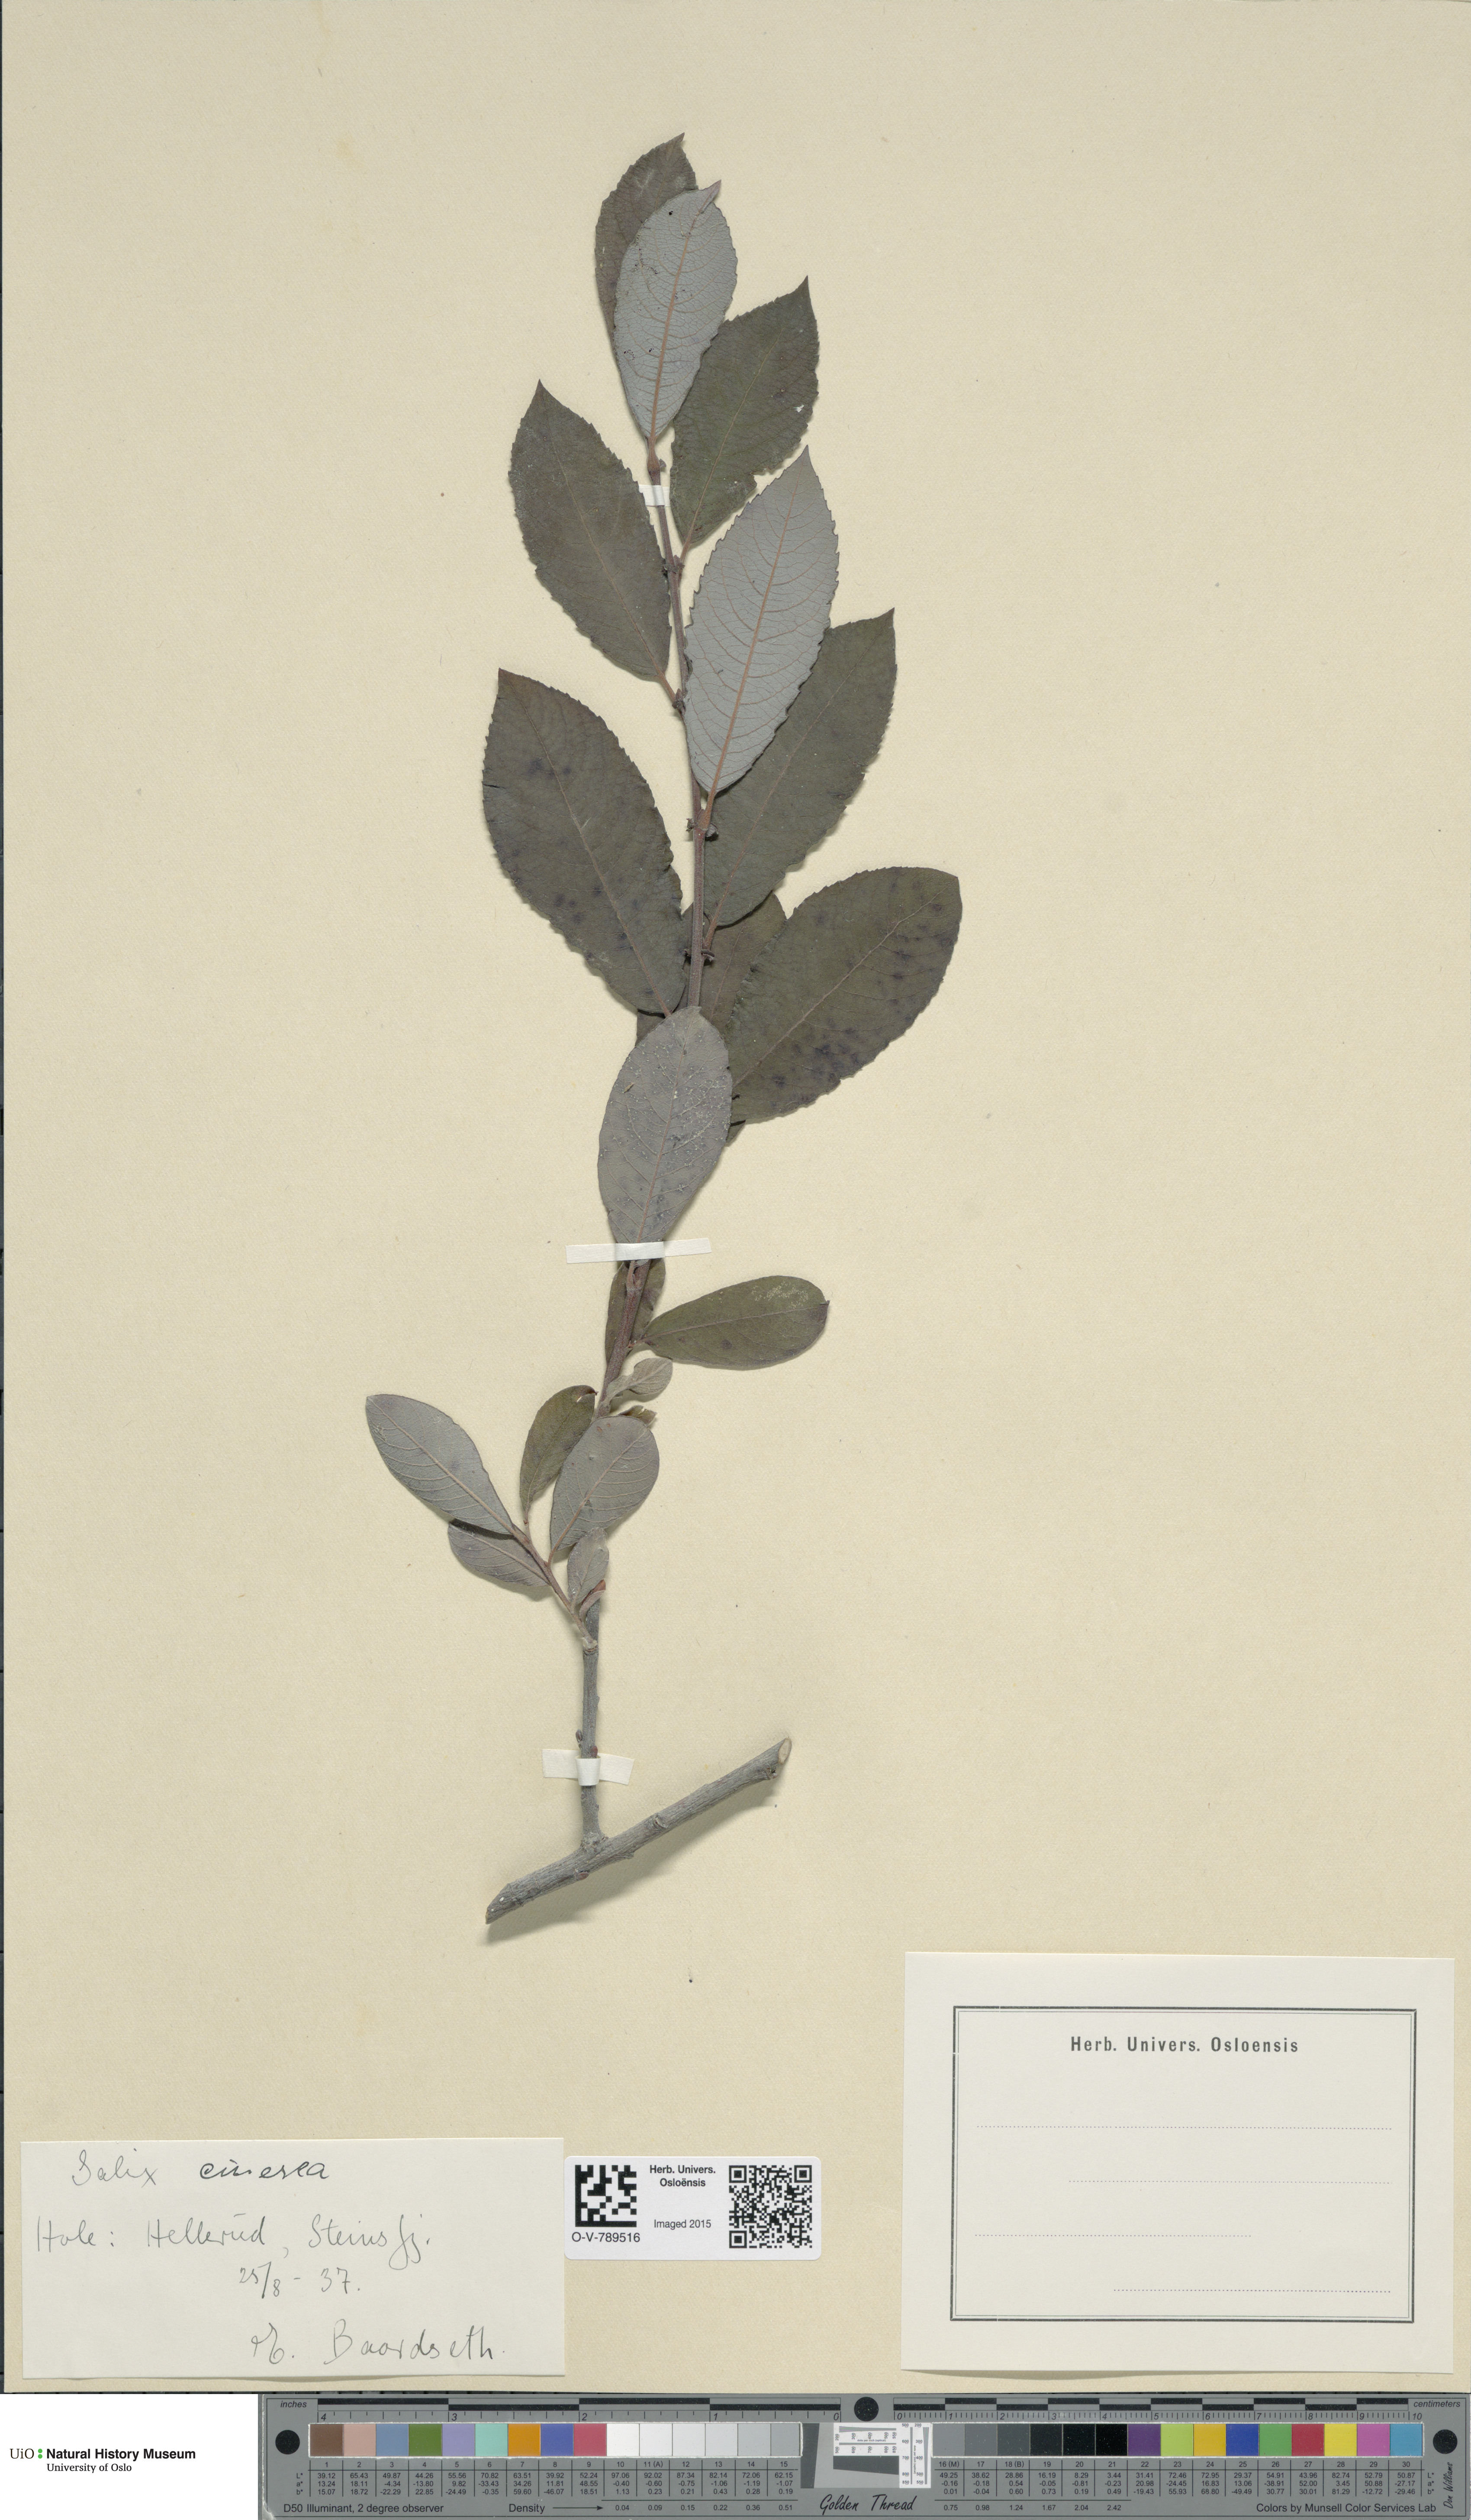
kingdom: Plantae
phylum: Tracheophyta
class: Magnoliopsida
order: Malpighiales
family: Salicaceae
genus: Salix
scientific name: Salix cinerea
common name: Common sallow
